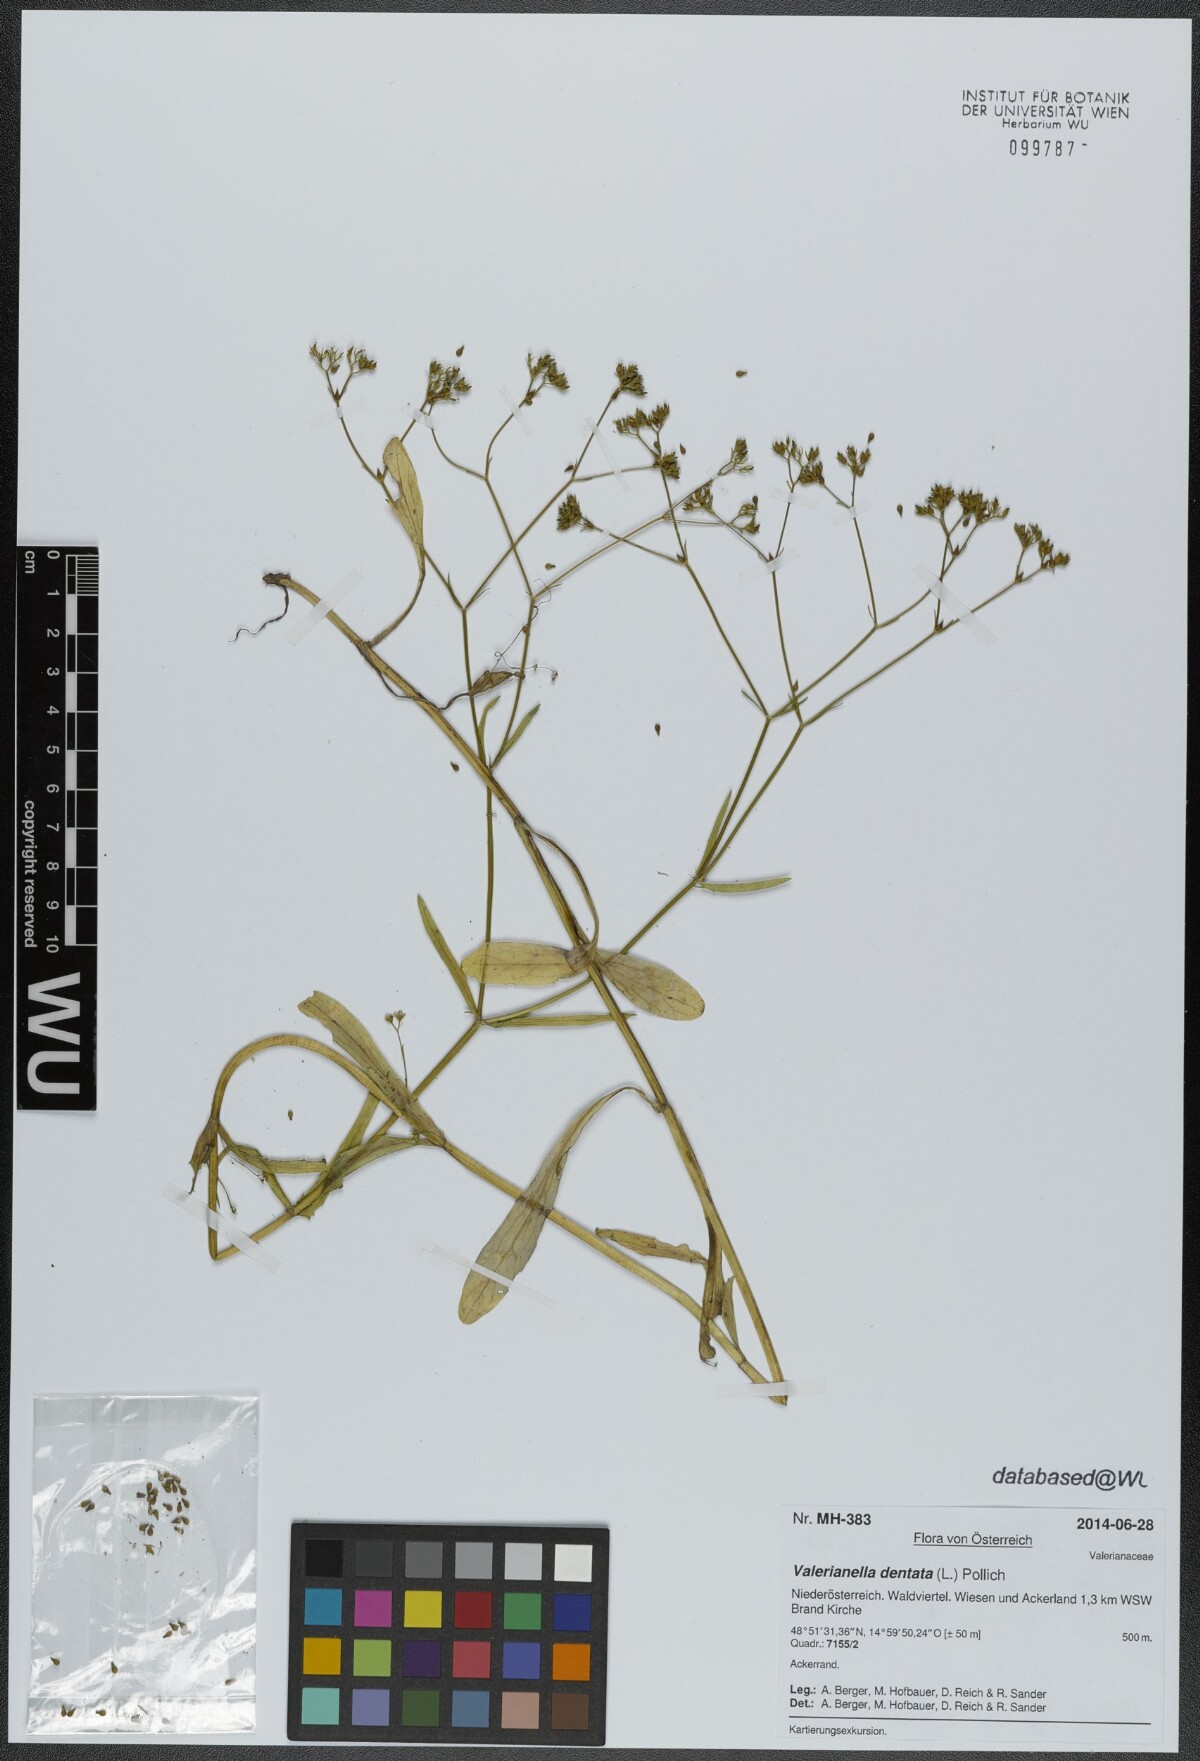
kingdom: Plantae
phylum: Tracheophyta
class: Magnoliopsida
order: Dipsacales
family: Caprifoliaceae
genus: Valerianella
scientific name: Valerianella dentata
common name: Narrow-fruited cornsalad
